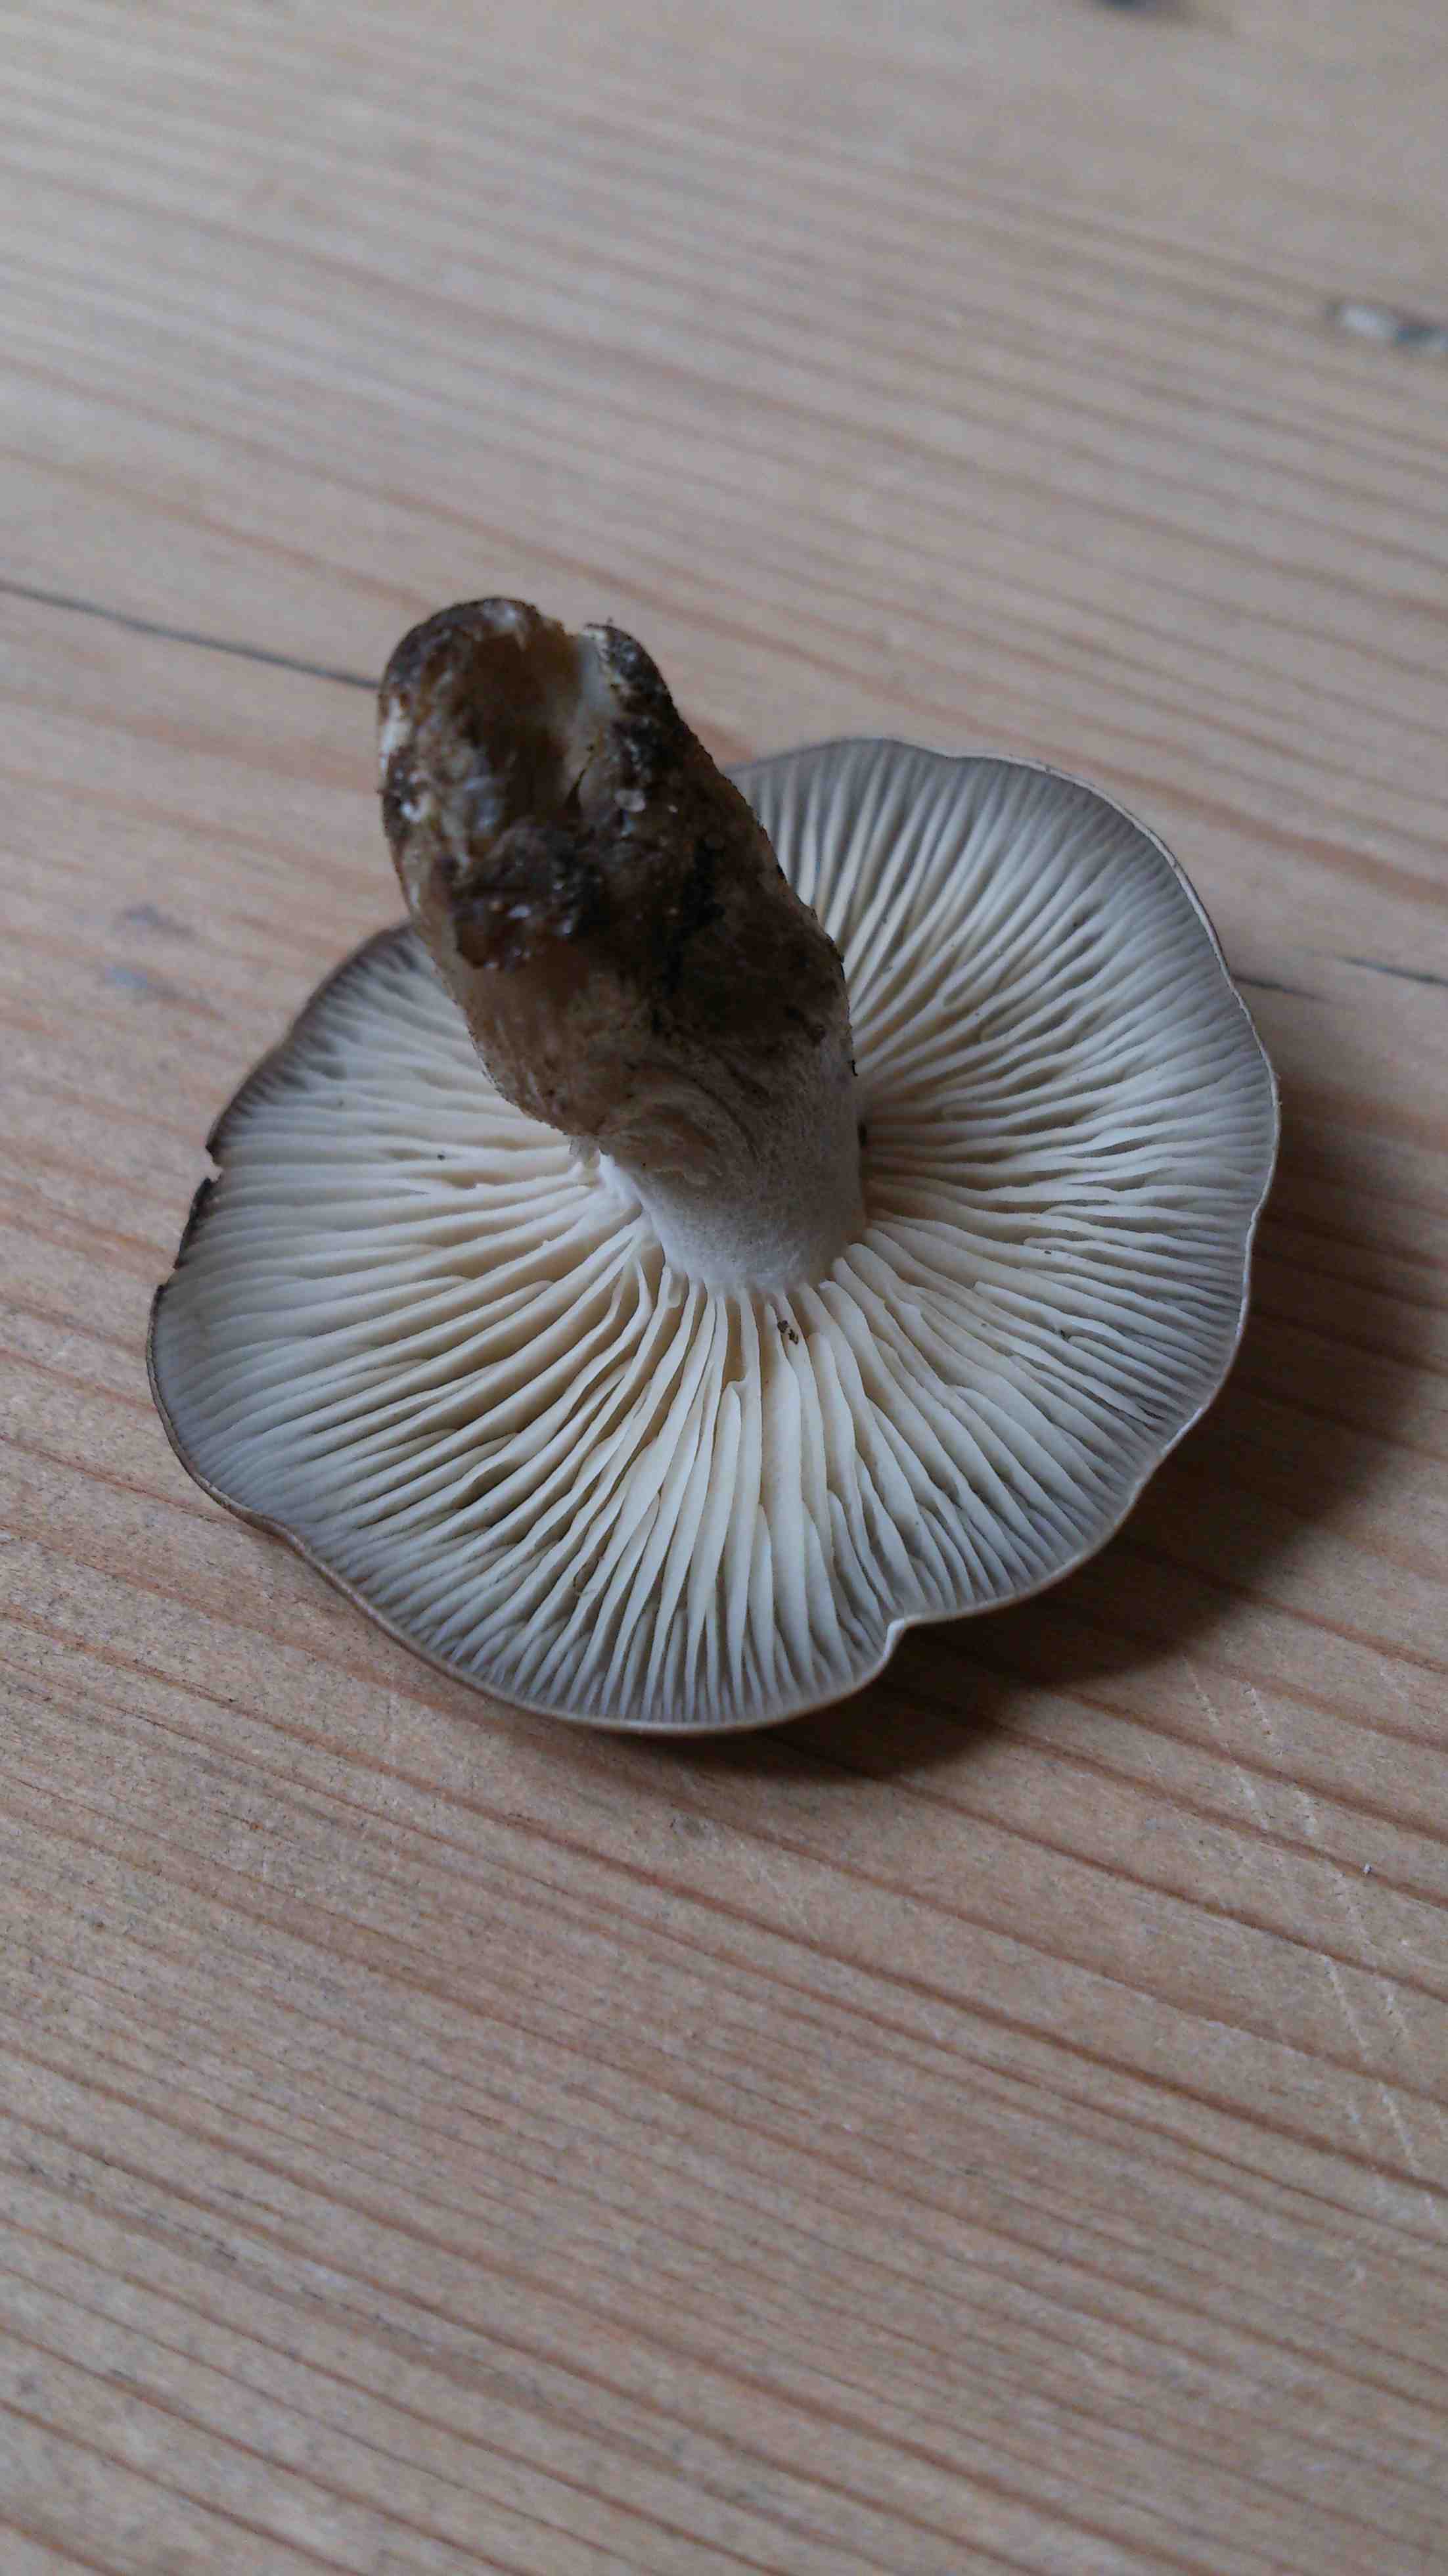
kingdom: Fungi
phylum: Basidiomycota
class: Agaricomycetes
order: Agaricales
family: Lyophyllaceae
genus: Lyophyllum
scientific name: Lyophyllum decastes
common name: røggrå gråblad
